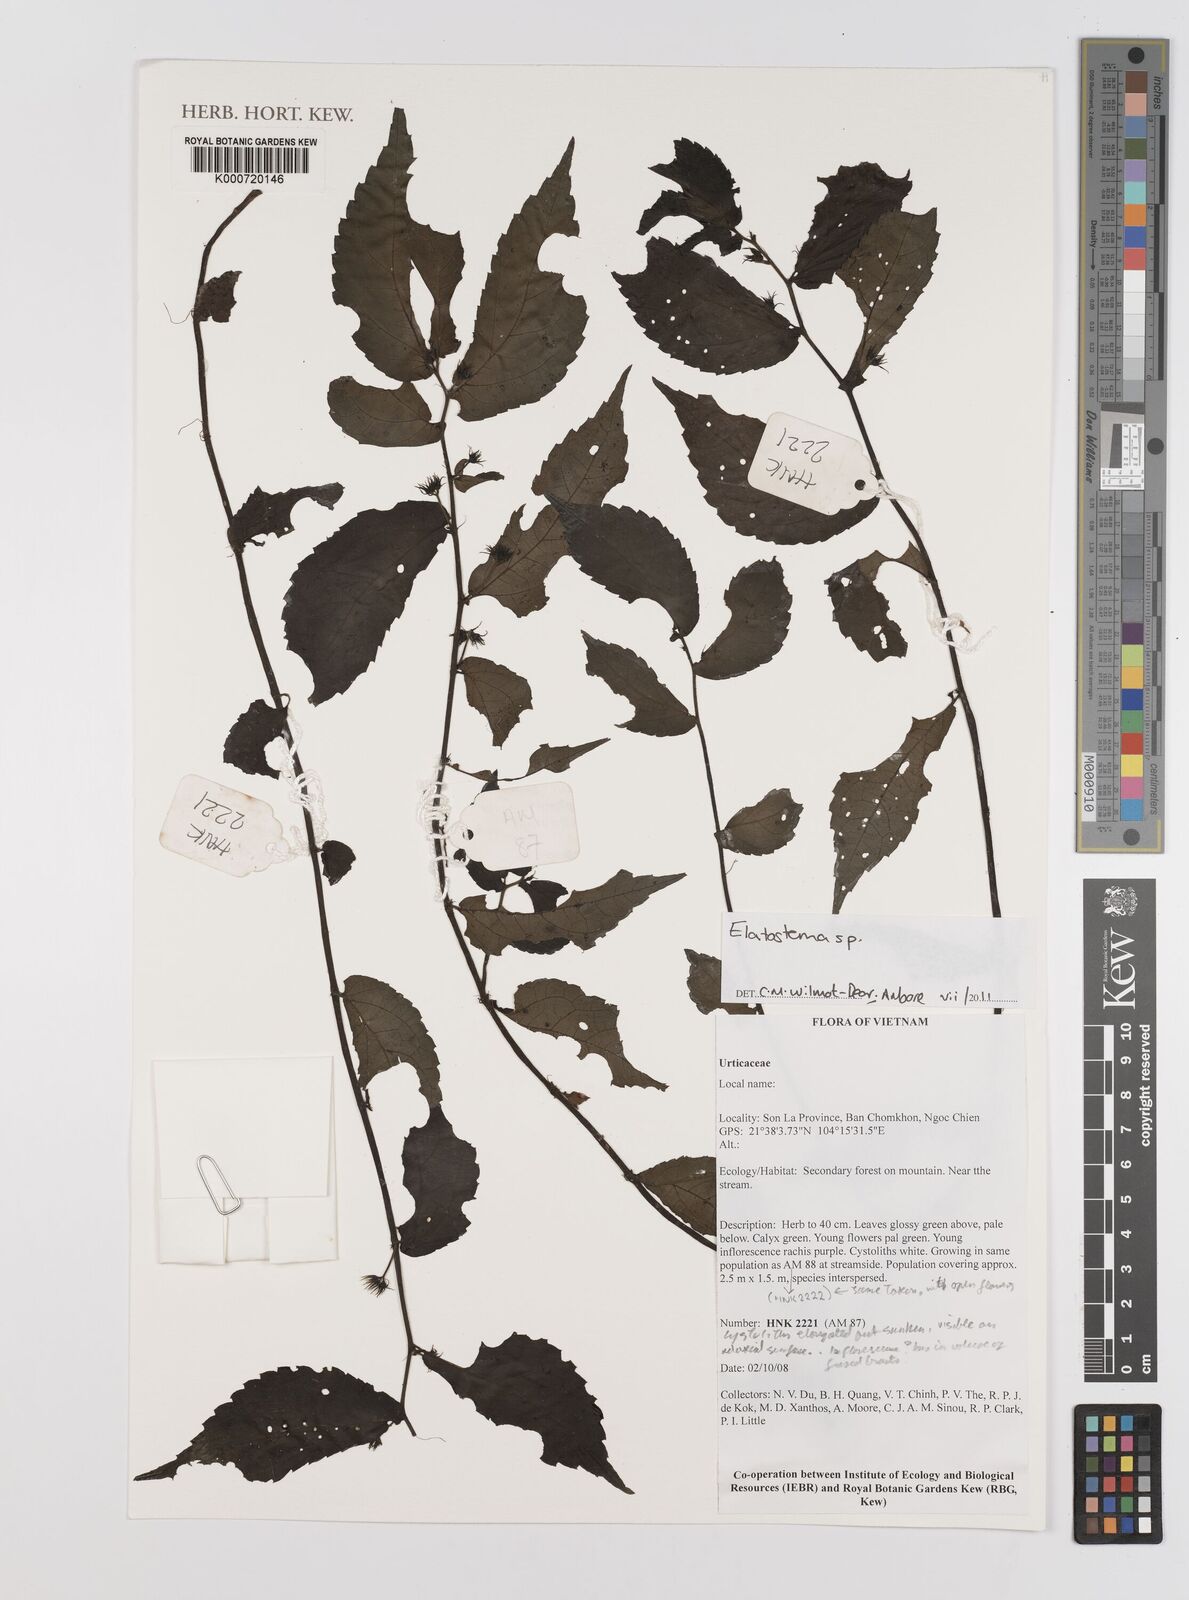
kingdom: Plantae
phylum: Tracheophyta
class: Magnoliopsida
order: Rosales
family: Urticaceae
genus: Elatostema
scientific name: Elatostema
